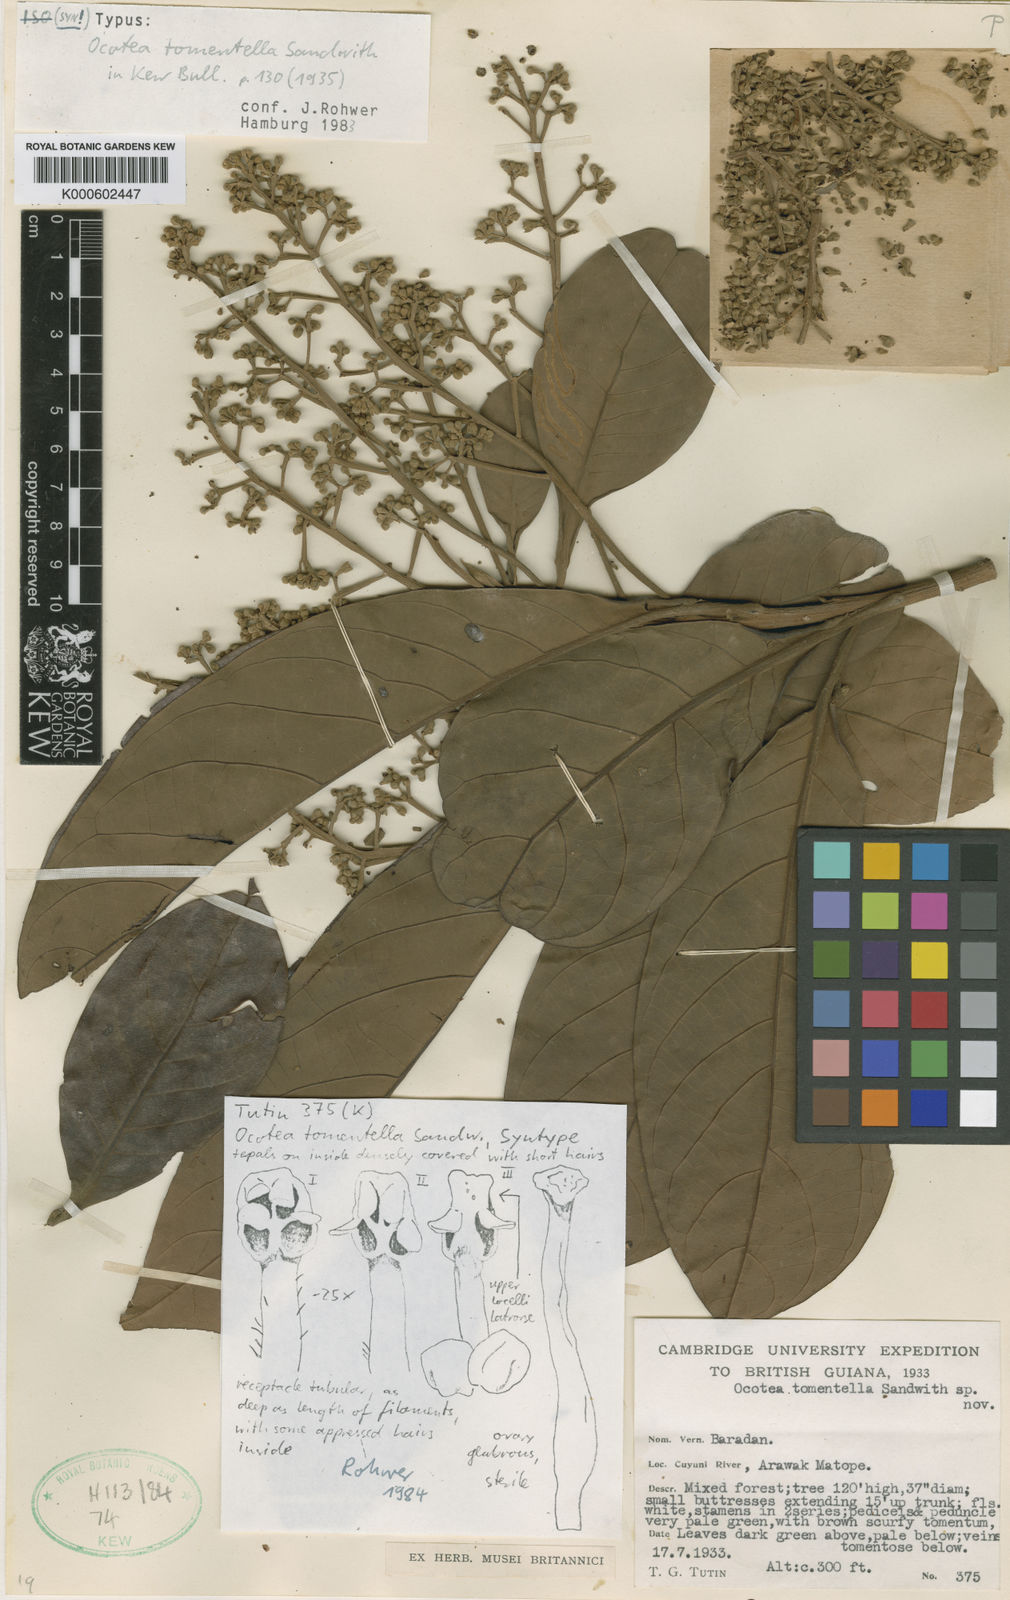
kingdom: Plantae
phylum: Tracheophyta
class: Magnoliopsida
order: Laurales
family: Lauraceae
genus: Ocotea
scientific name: Ocotea tomentella
